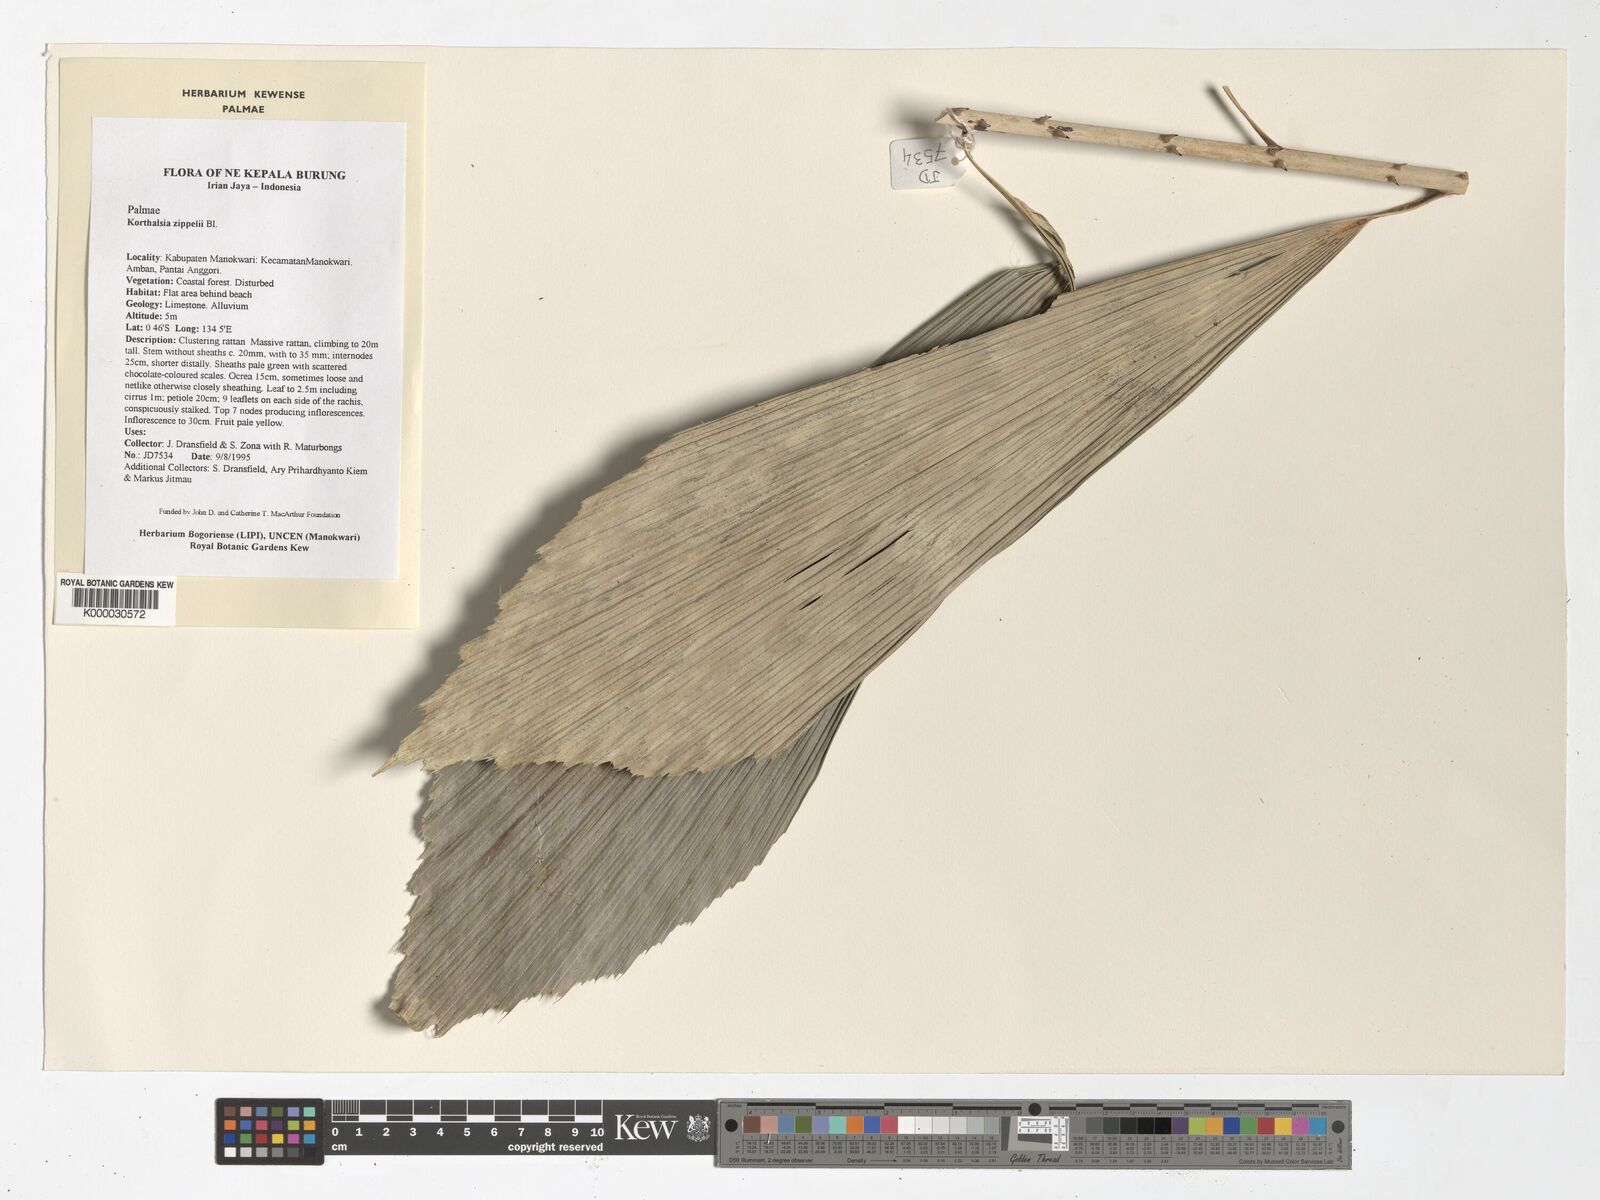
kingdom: Plantae
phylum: Tracheophyta
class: Liliopsida
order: Arecales
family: Arecaceae
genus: Korthalsia
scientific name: Korthalsia zippelii
